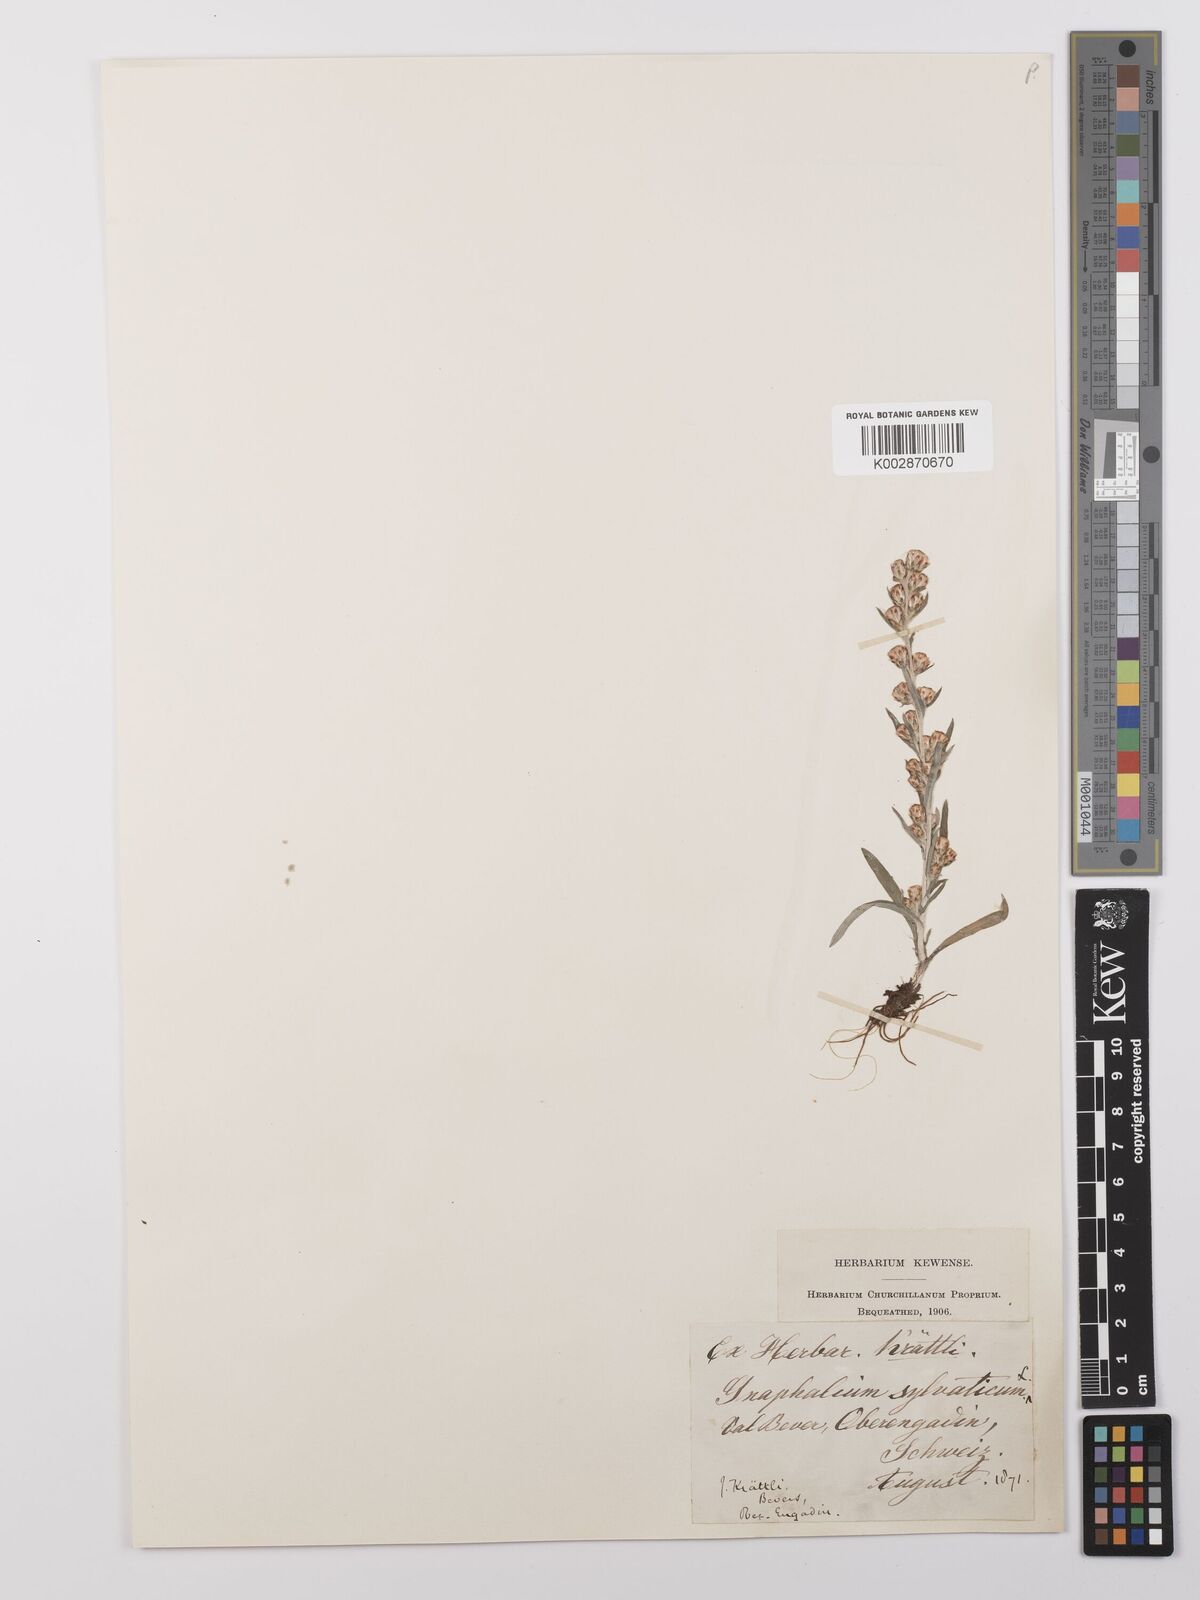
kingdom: Plantae
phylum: Tracheophyta
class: Magnoliopsida
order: Asterales
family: Asteraceae
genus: Omalotheca
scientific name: Omalotheca sylvatica
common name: Heath cudweed
